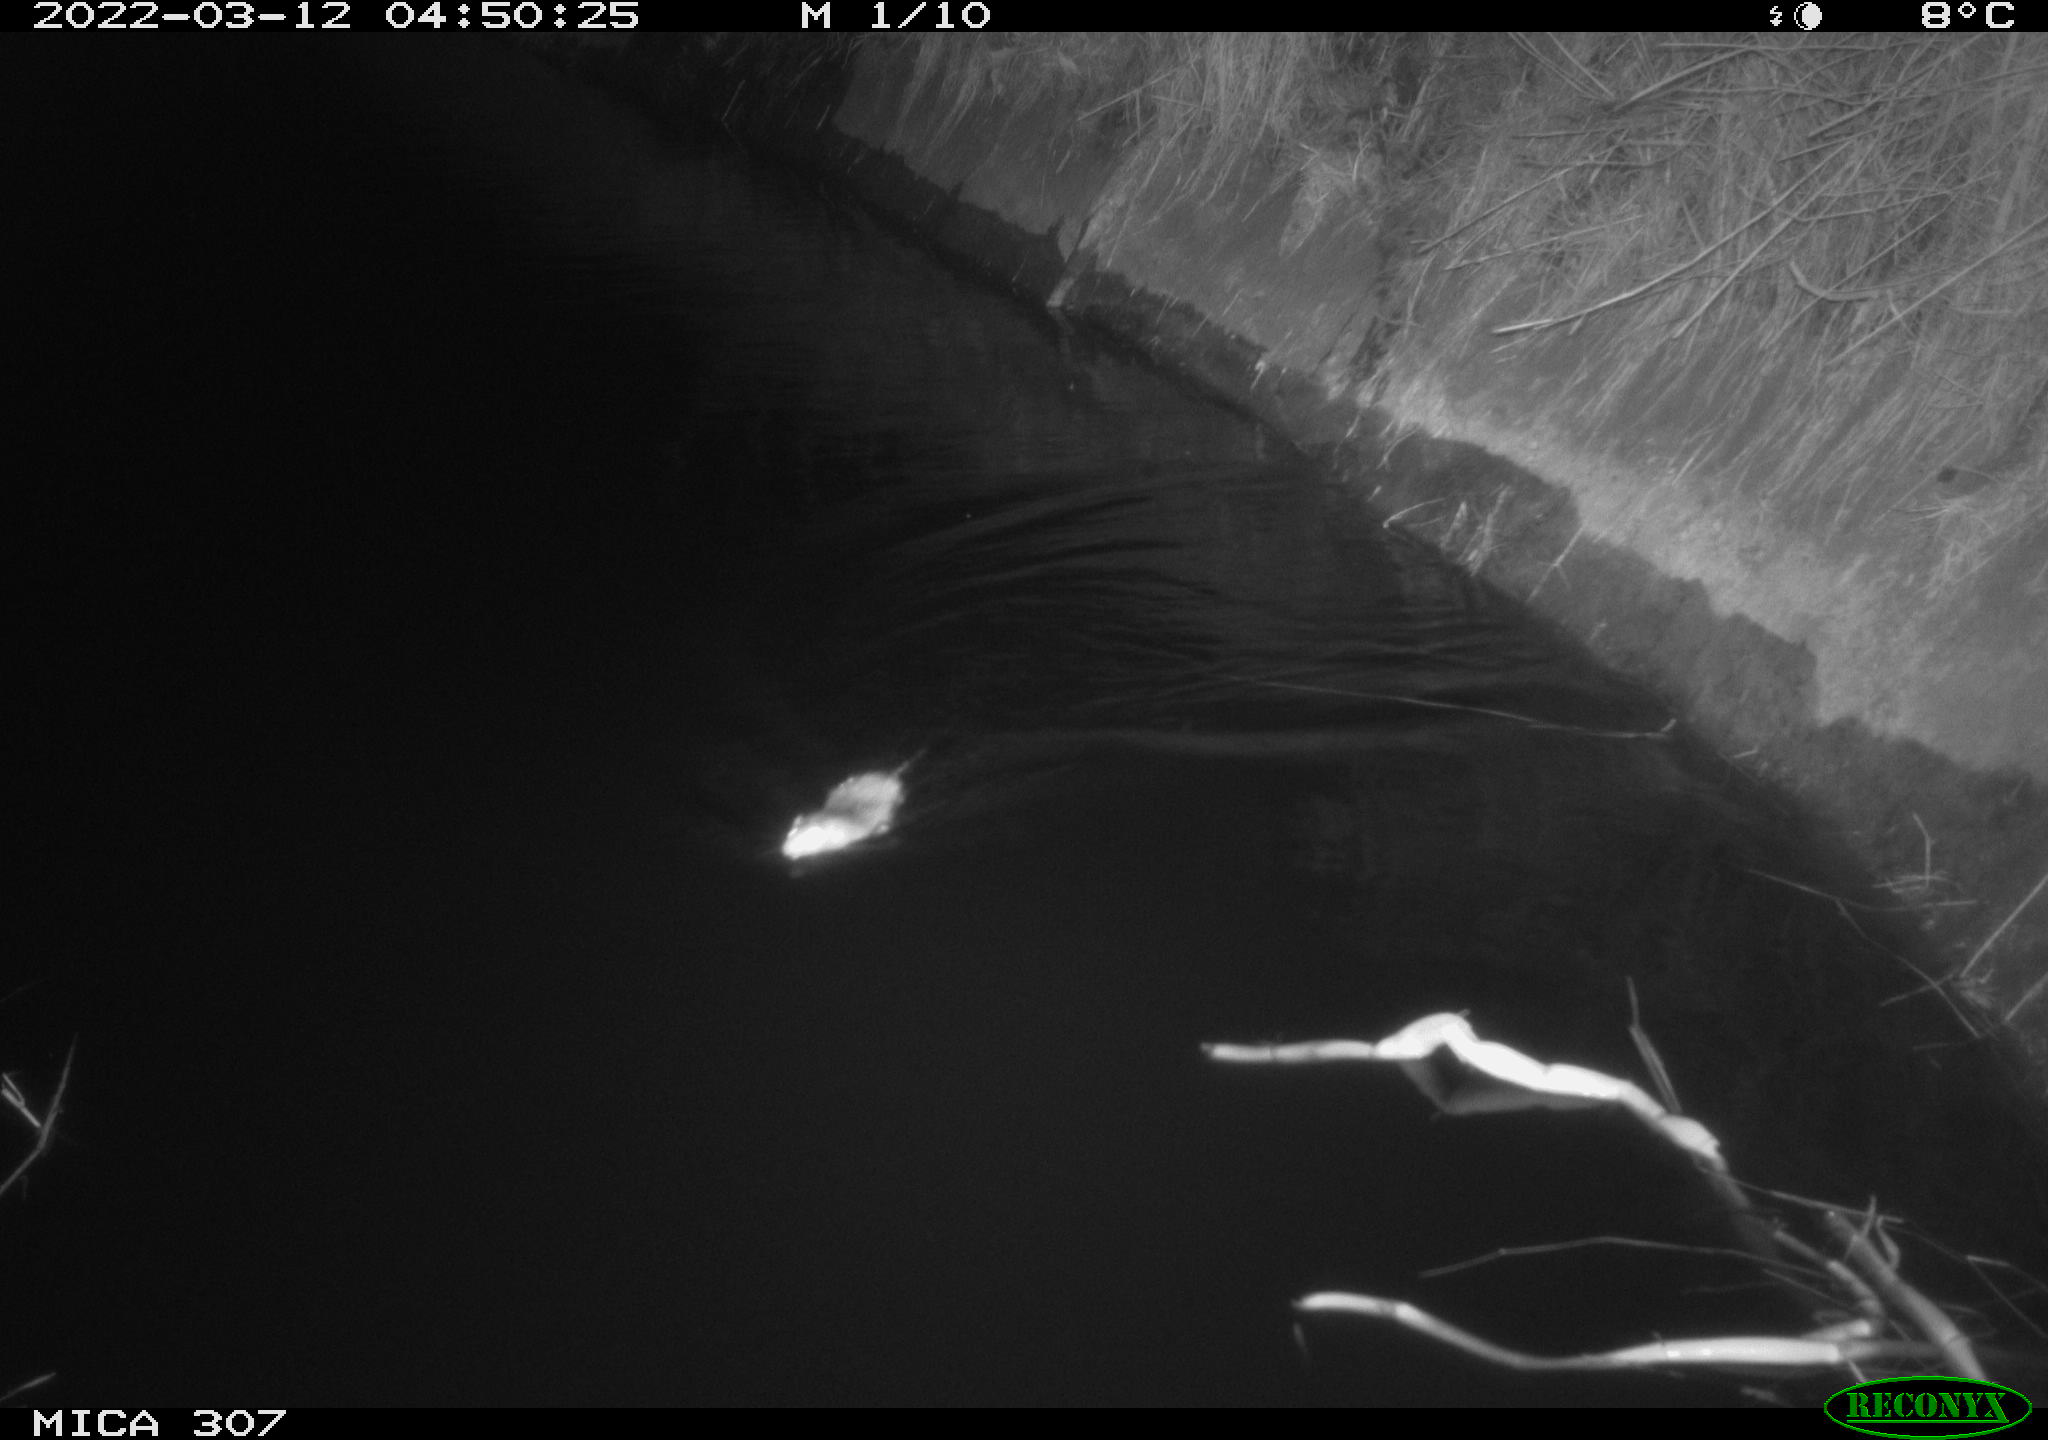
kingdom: Animalia
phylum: Chordata
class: Mammalia
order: Rodentia
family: Muridae
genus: Rattus
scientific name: Rattus norvegicus
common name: Brown rat
